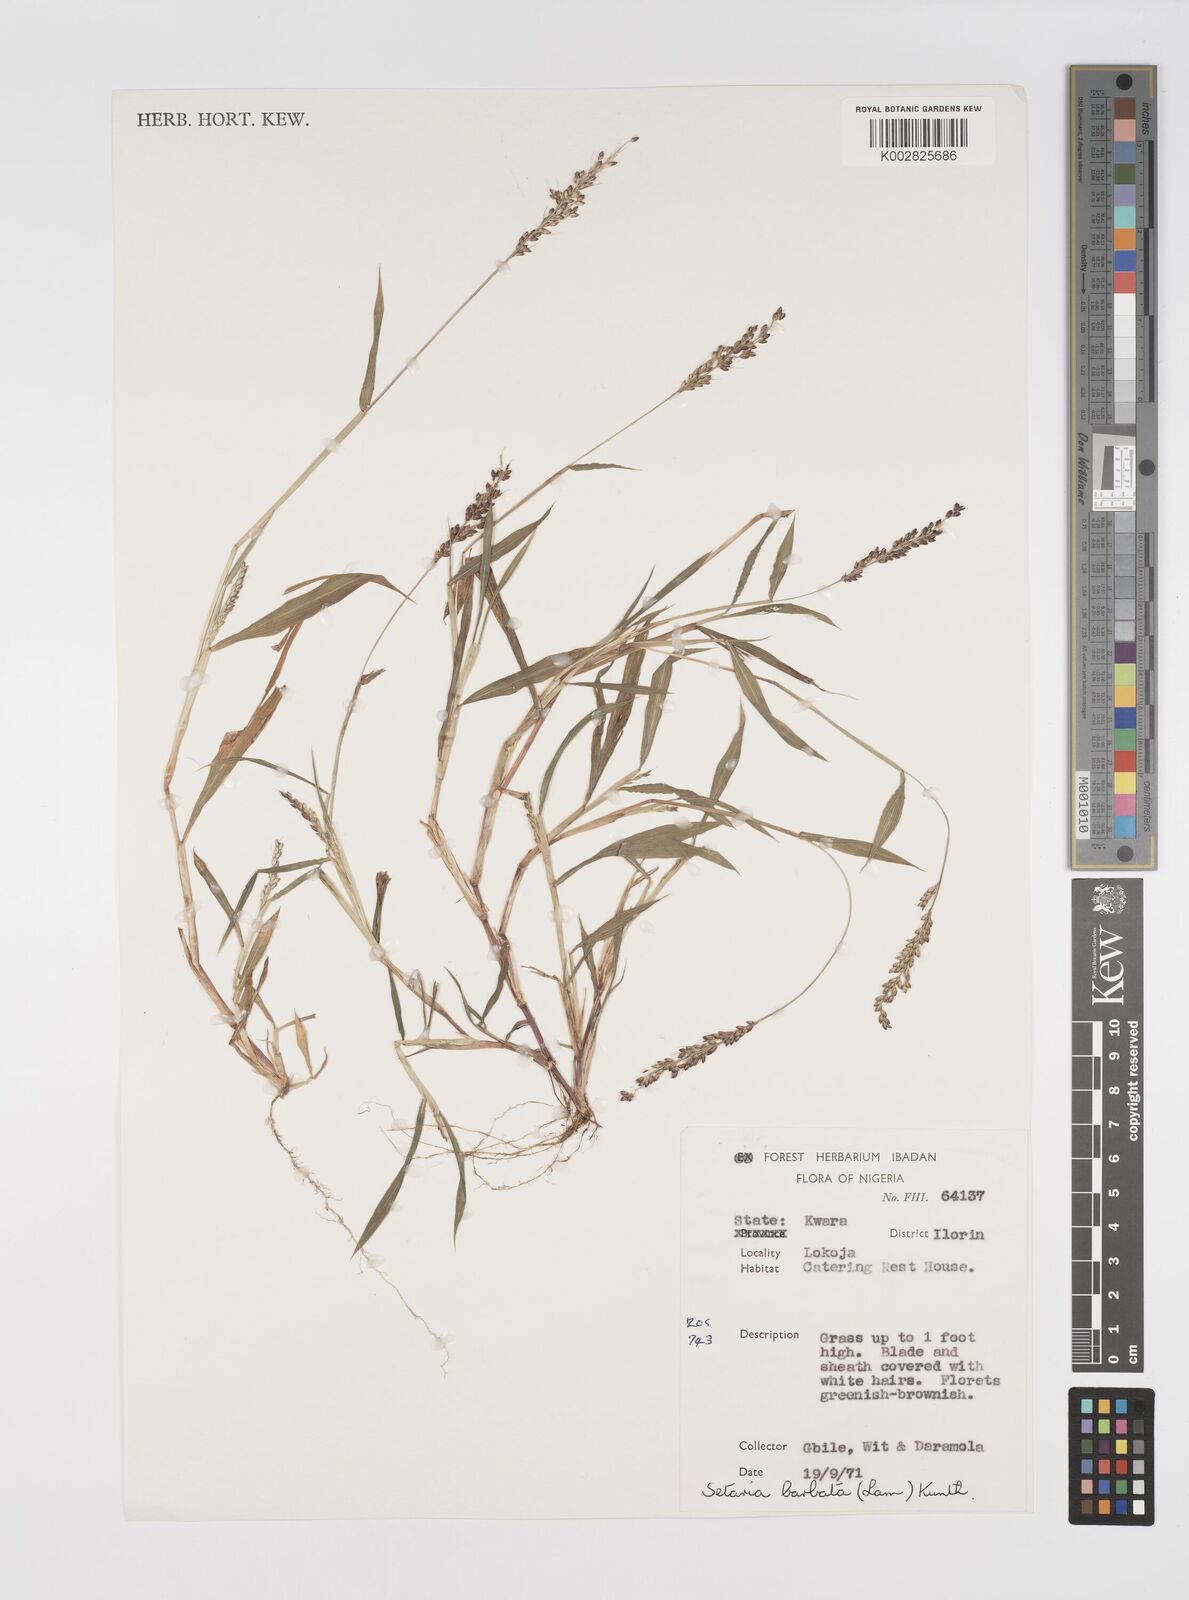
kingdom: Plantae
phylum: Tracheophyta
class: Liliopsida
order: Poales
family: Poaceae
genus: Setaria
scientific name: Setaria barbata
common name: East indian bristlegrass
